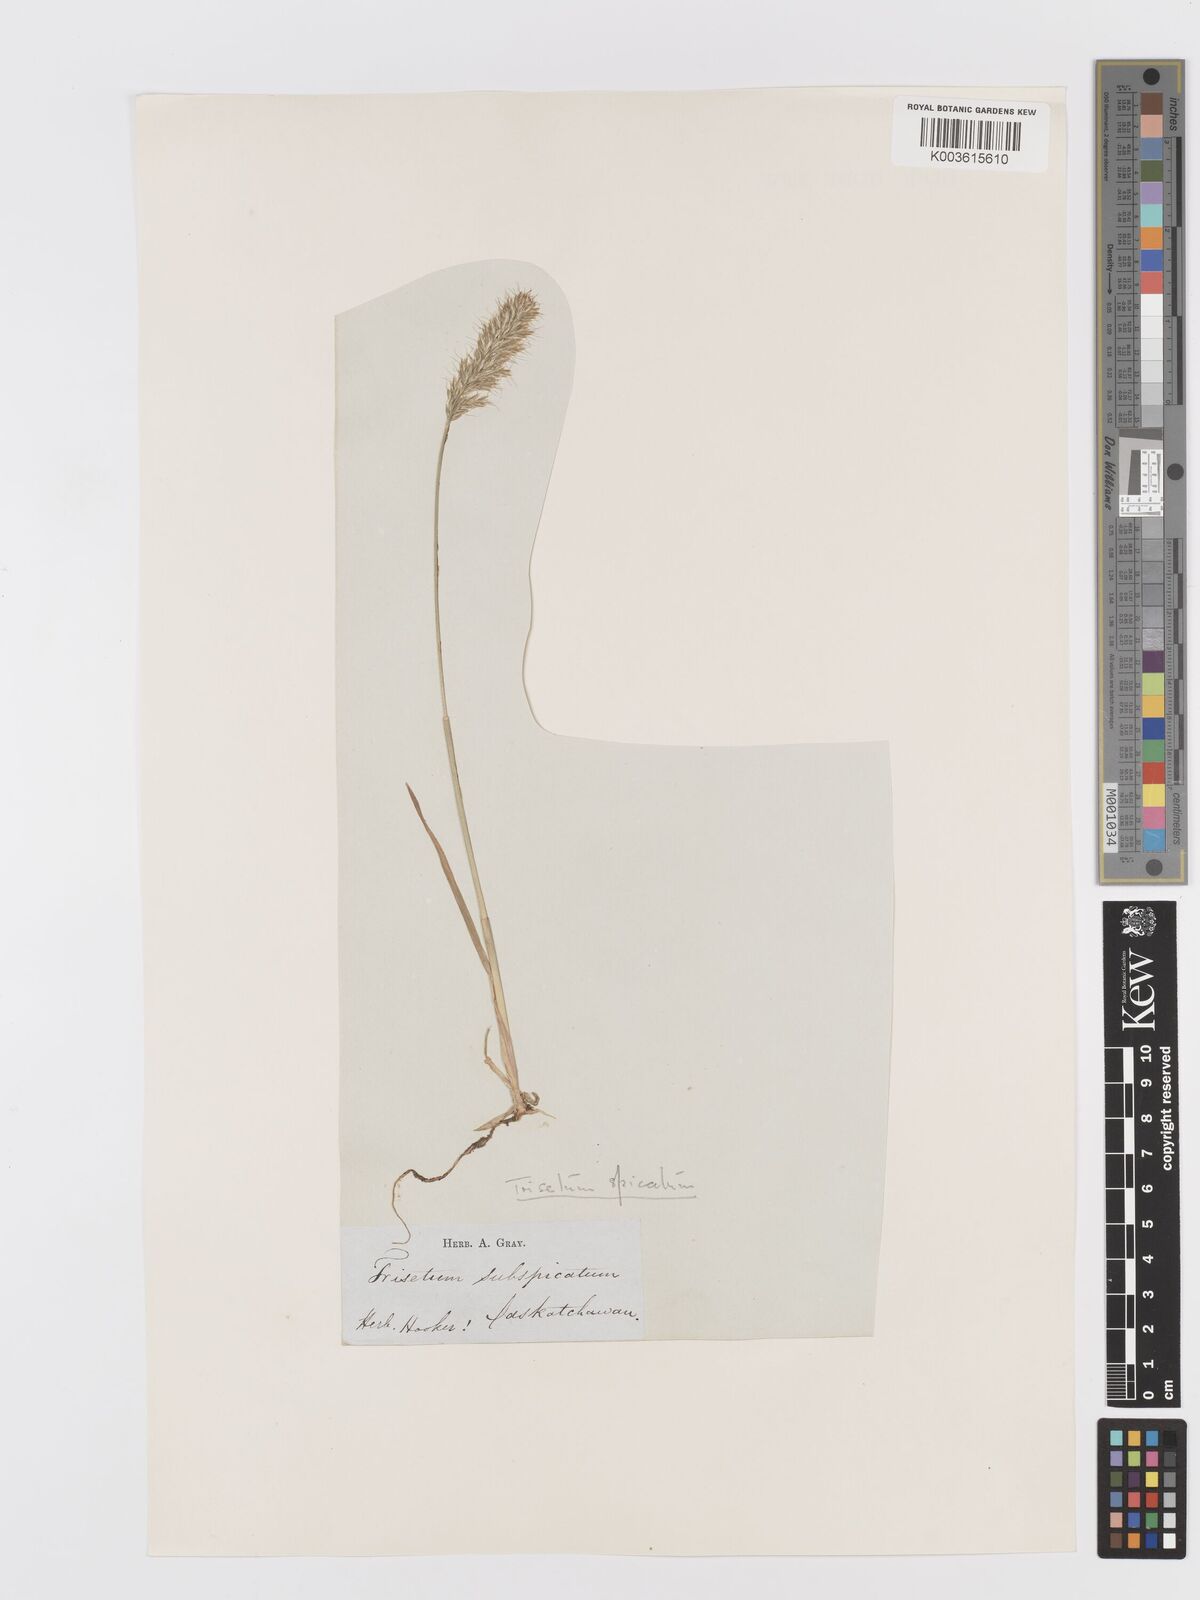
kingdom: Plantae
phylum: Tracheophyta
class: Liliopsida
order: Poales
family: Poaceae
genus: Koeleria
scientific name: Koeleria spicata
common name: Mountain trisetum
